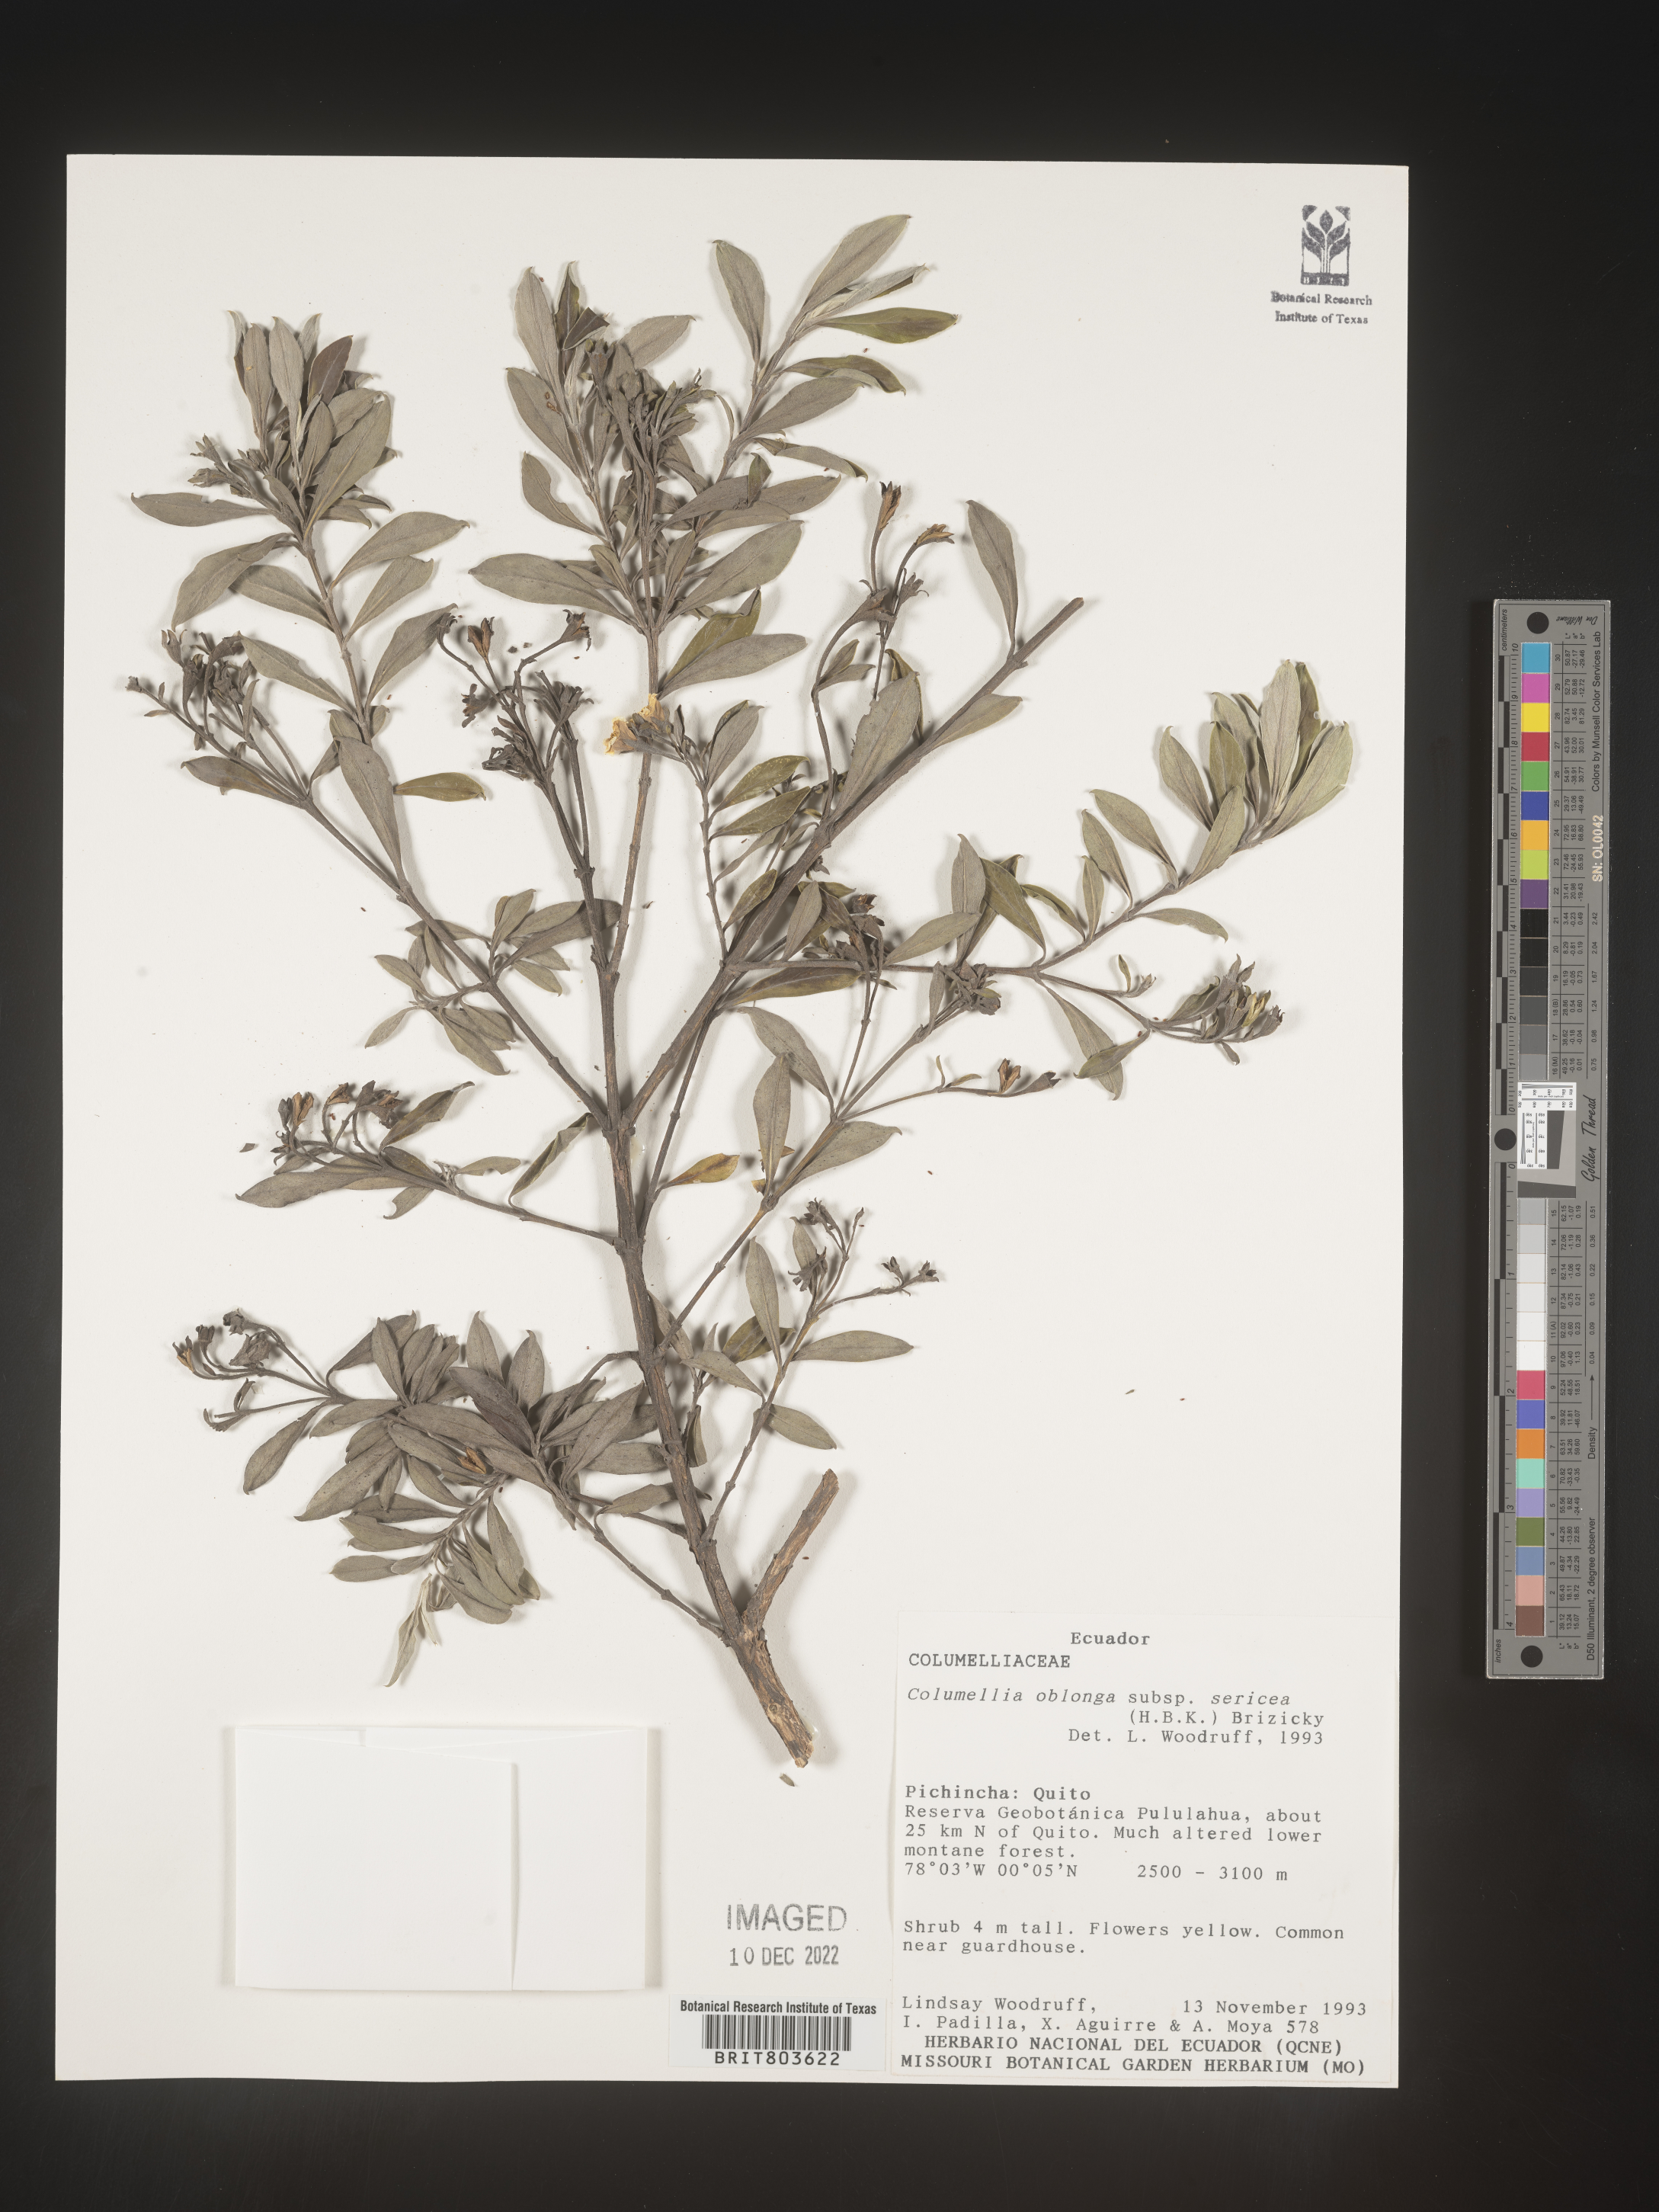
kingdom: Plantae
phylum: Tracheophyta
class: Magnoliopsida
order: Bruniales
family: Columelliaceae
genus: Columellia
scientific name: Columellia
